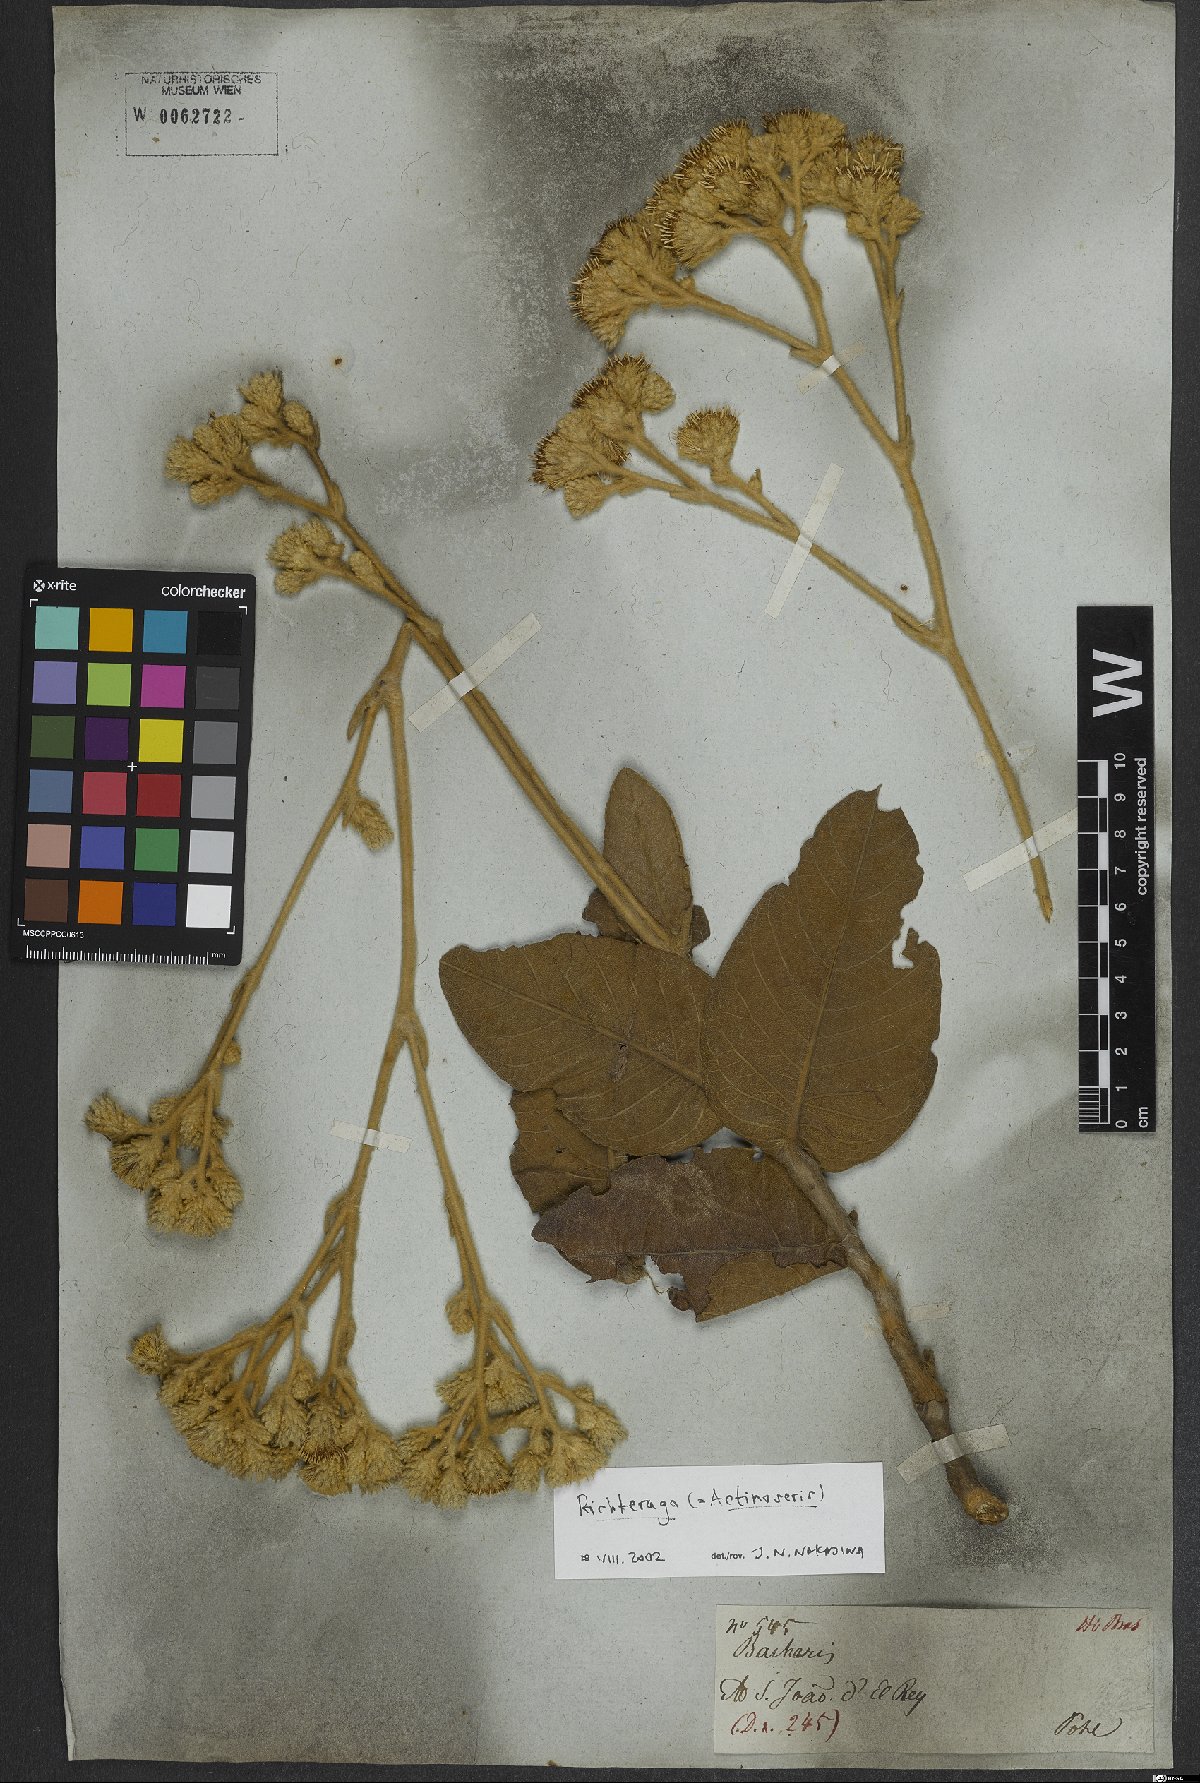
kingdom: Animalia
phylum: Cnidaria
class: Anthozoa
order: Scleractinia
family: Asteroseriidae
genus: Actinoseris
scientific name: Actinoseris
